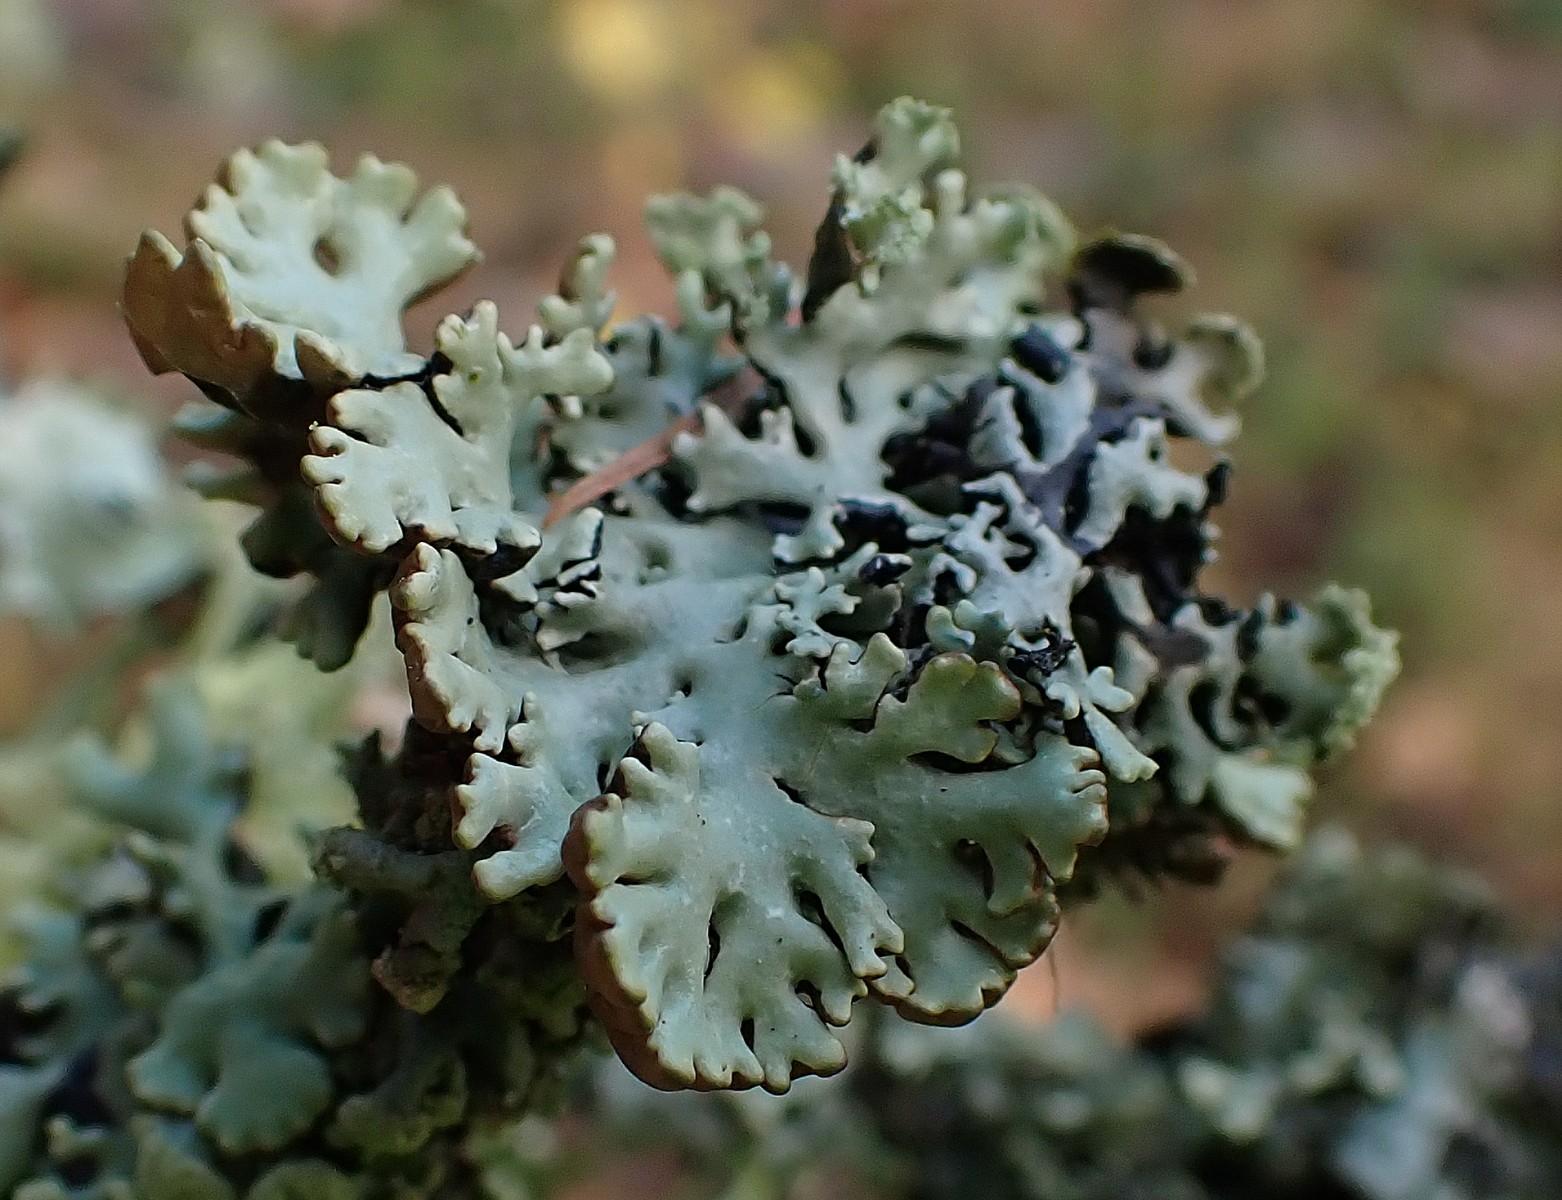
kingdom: Fungi
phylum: Ascomycota
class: Lecanoromycetes
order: Lecanorales
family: Parmeliaceae
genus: Hypogymnia
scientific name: Hypogymnia physodes
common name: almindelig kvistlav
